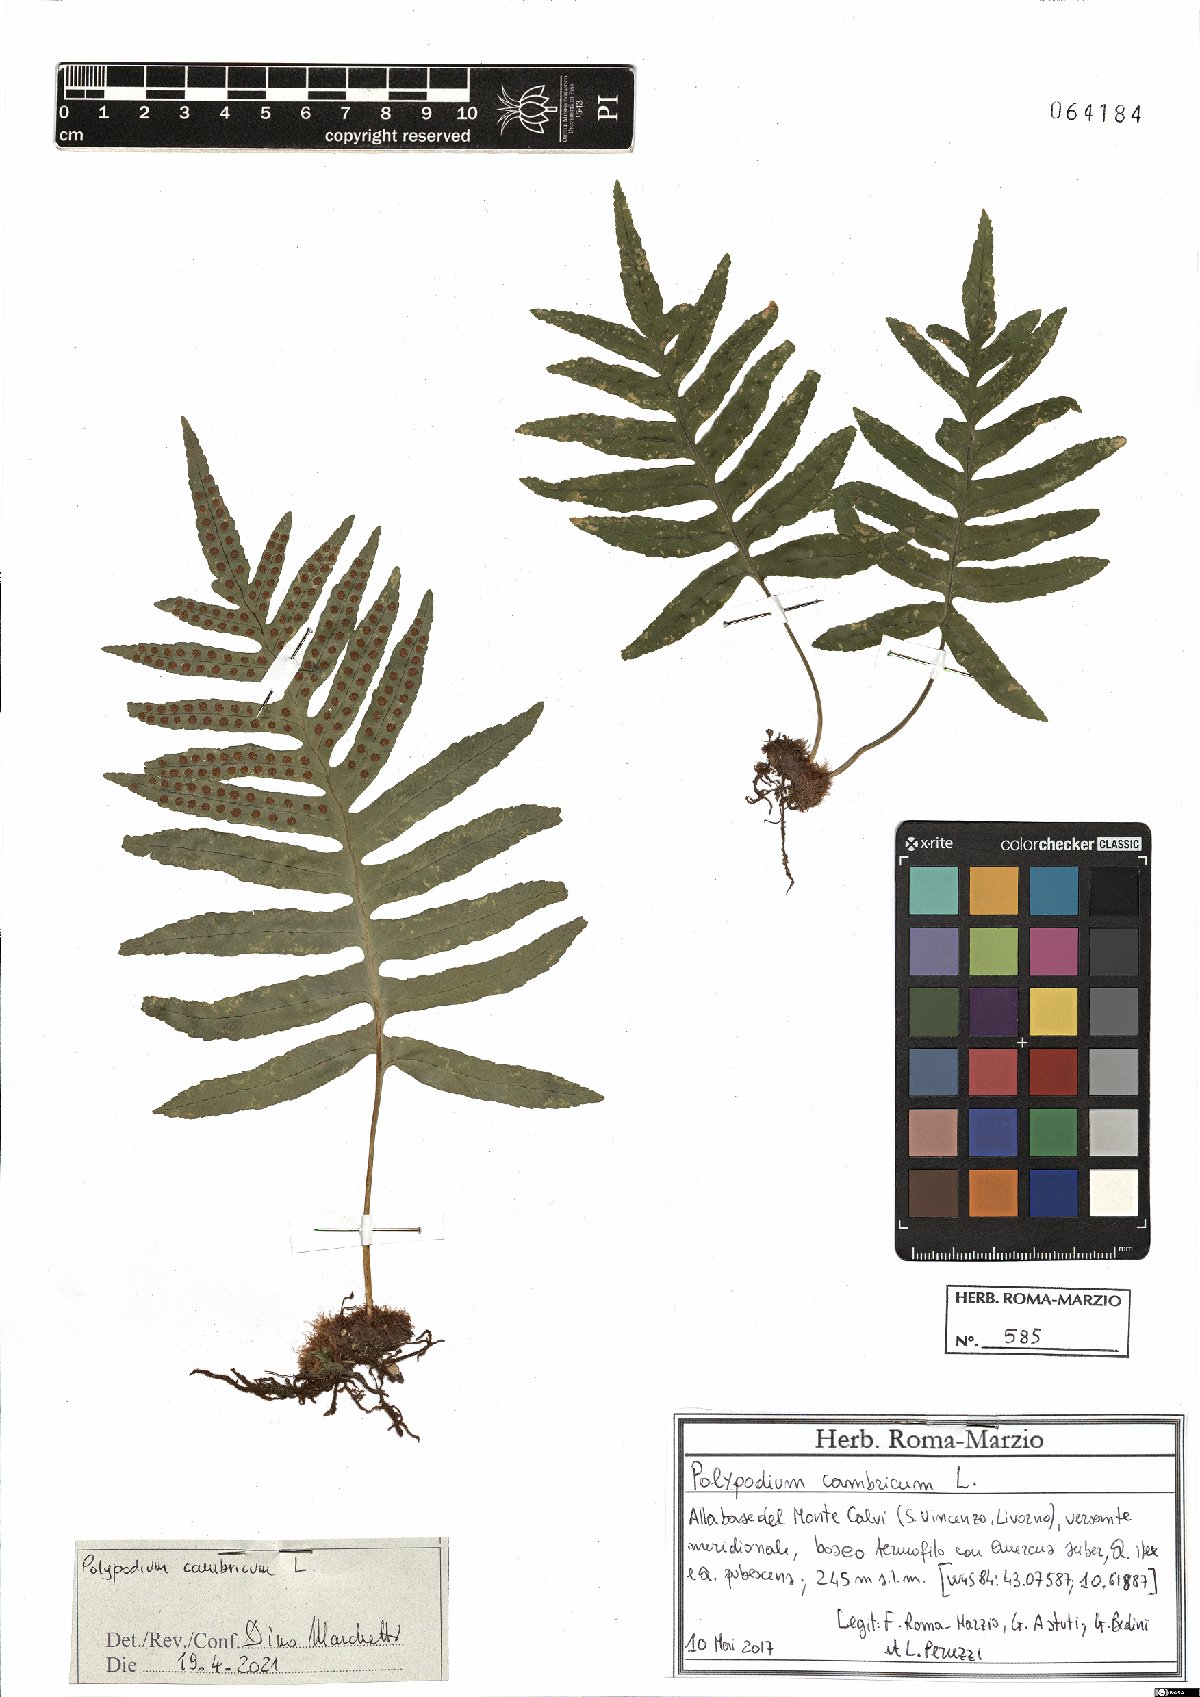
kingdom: Plantae
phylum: Tracheophyta
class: Polypodiopsida
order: Polypodiales
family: Polypodiaceae
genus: Polypodium
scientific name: Polypodium cambricum
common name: Southern polypody
